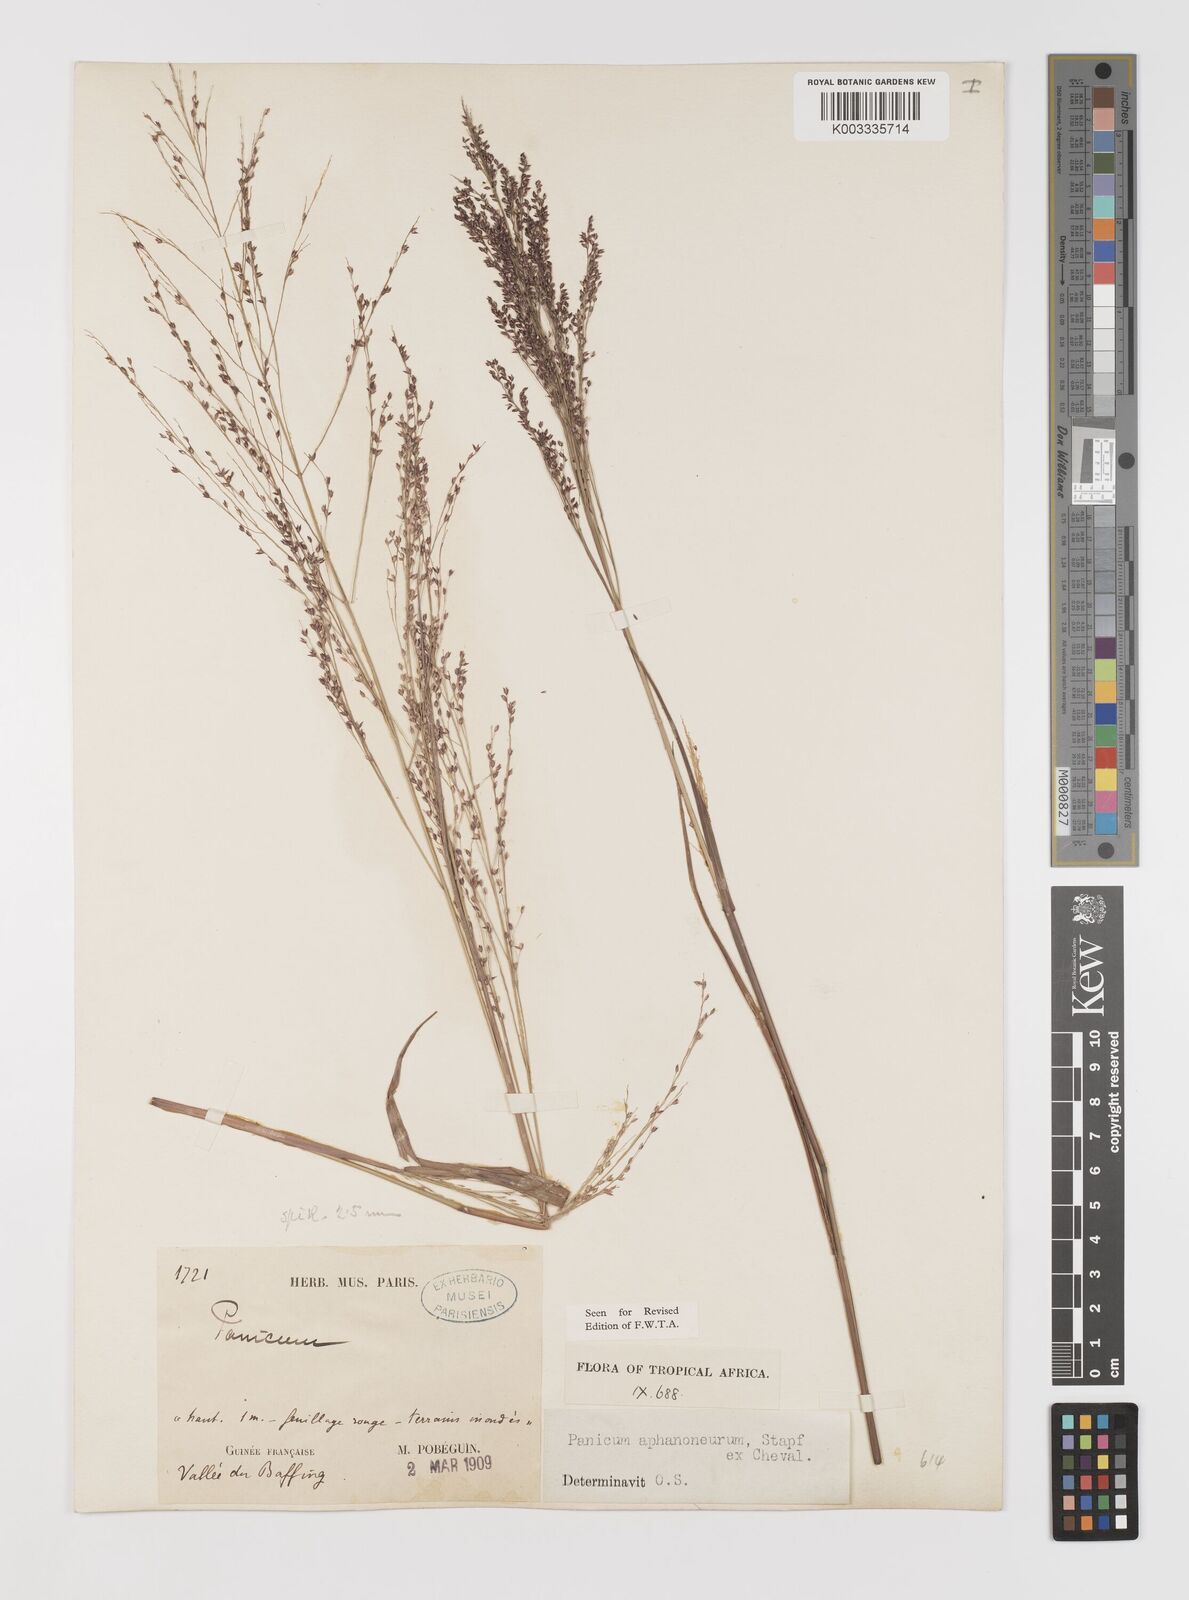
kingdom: Plantae
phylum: Tracheophyta
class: Liliopsida
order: Poales
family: Poaceae
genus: Panicum
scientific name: Panicum fluviicola
